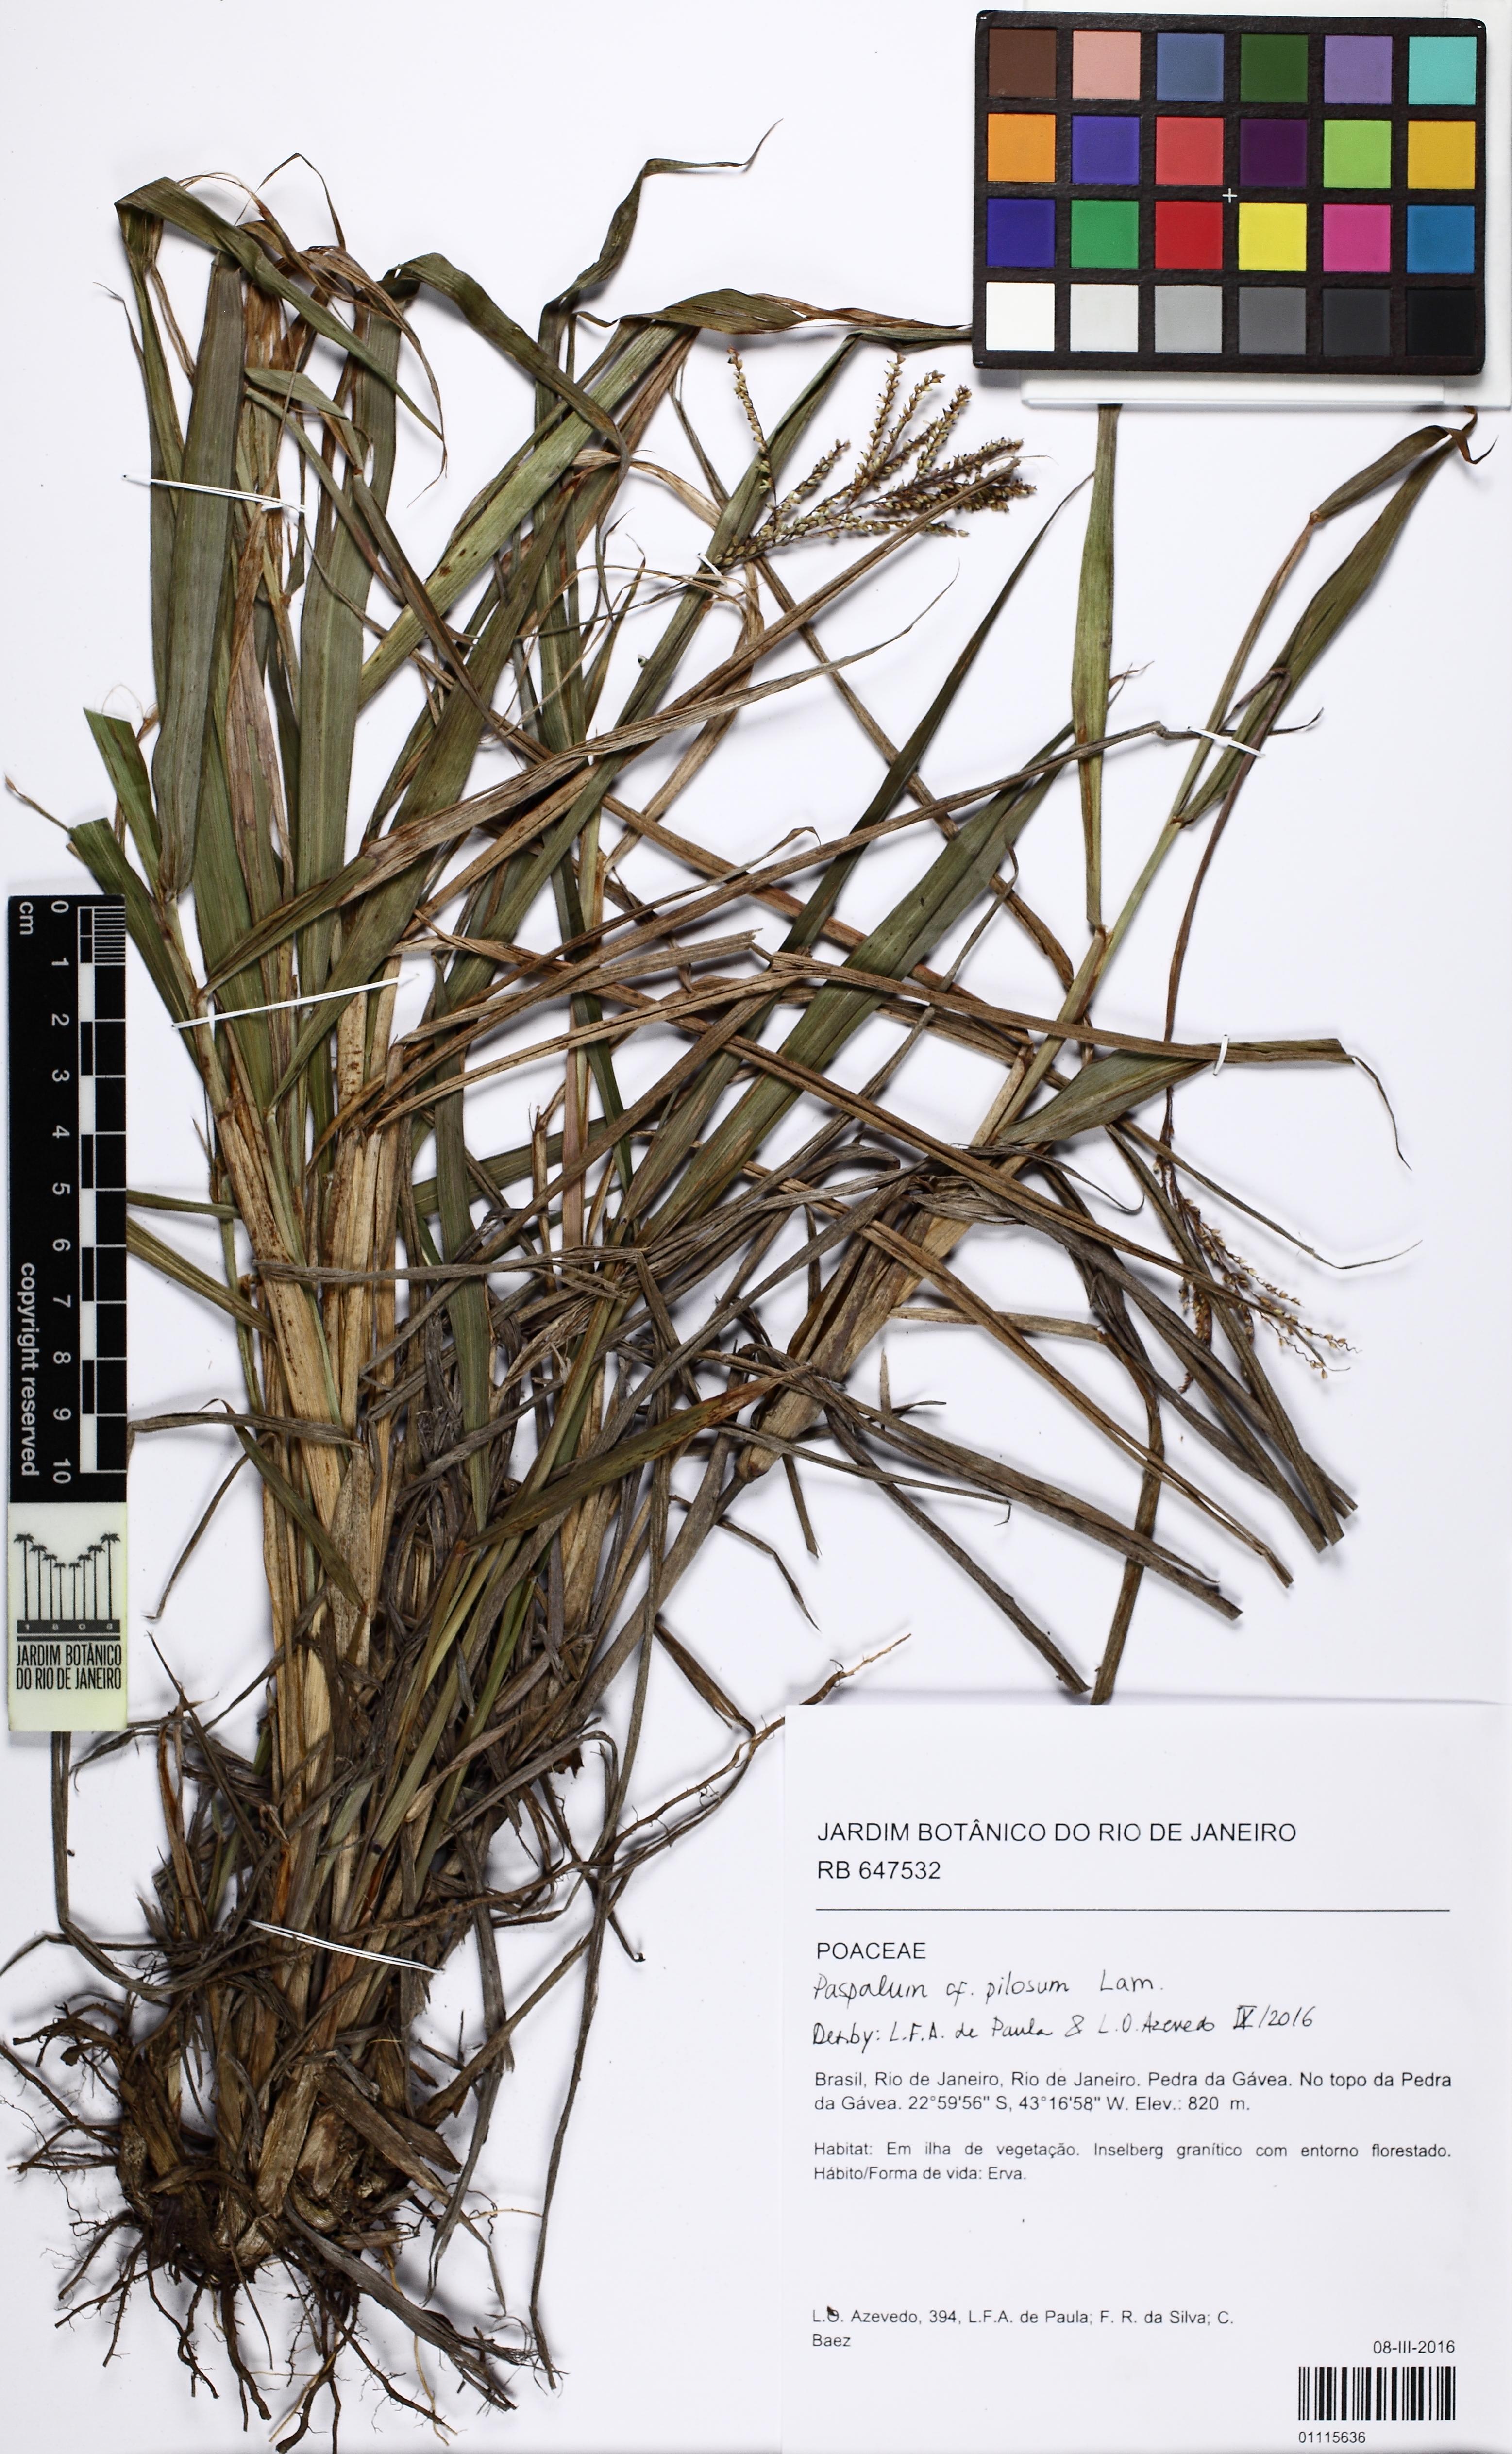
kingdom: Plantae
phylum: Tracheophyta
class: Liliopsida
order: Poales
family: Poaceae
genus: Paspalum
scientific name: Paspalum pilosum
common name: Crowngrass
